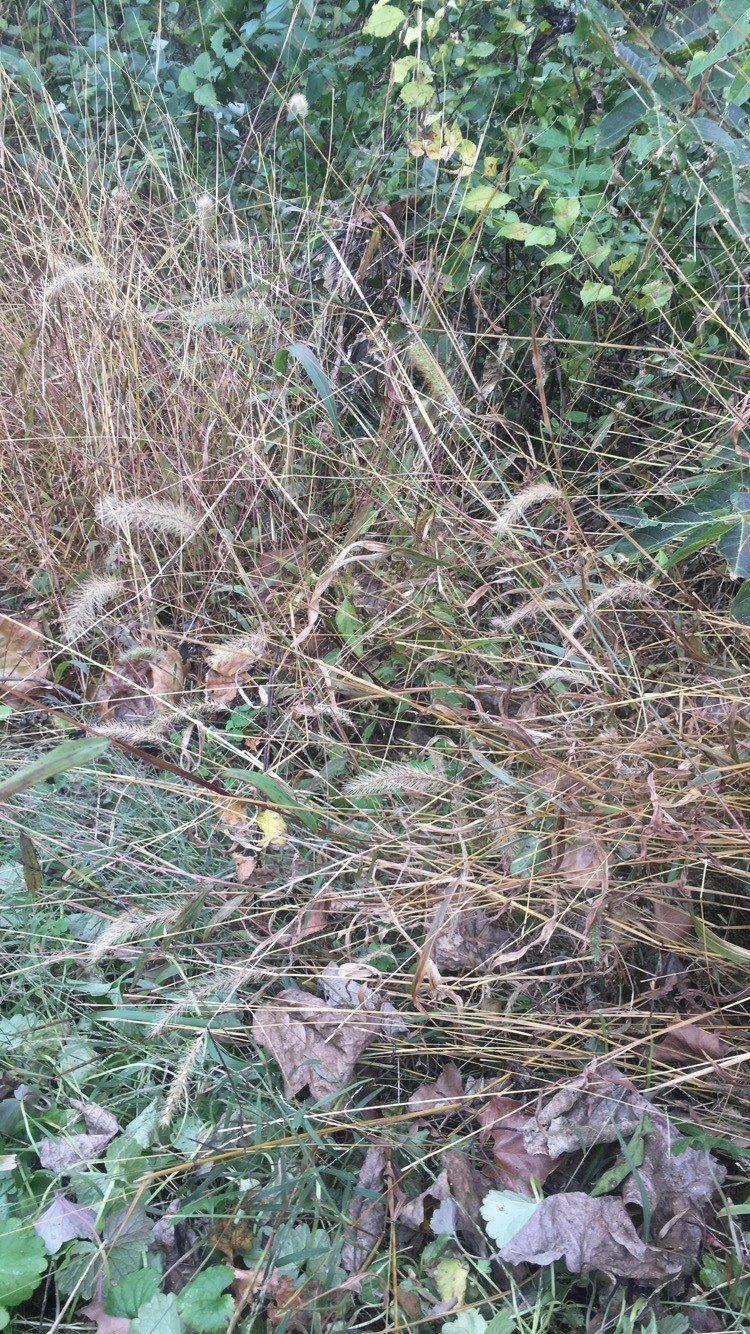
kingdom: Plantae
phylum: Tracheophyta
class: Liliopsida
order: Poales
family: Poaceae
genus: Setaria
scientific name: Setaria parviflora
